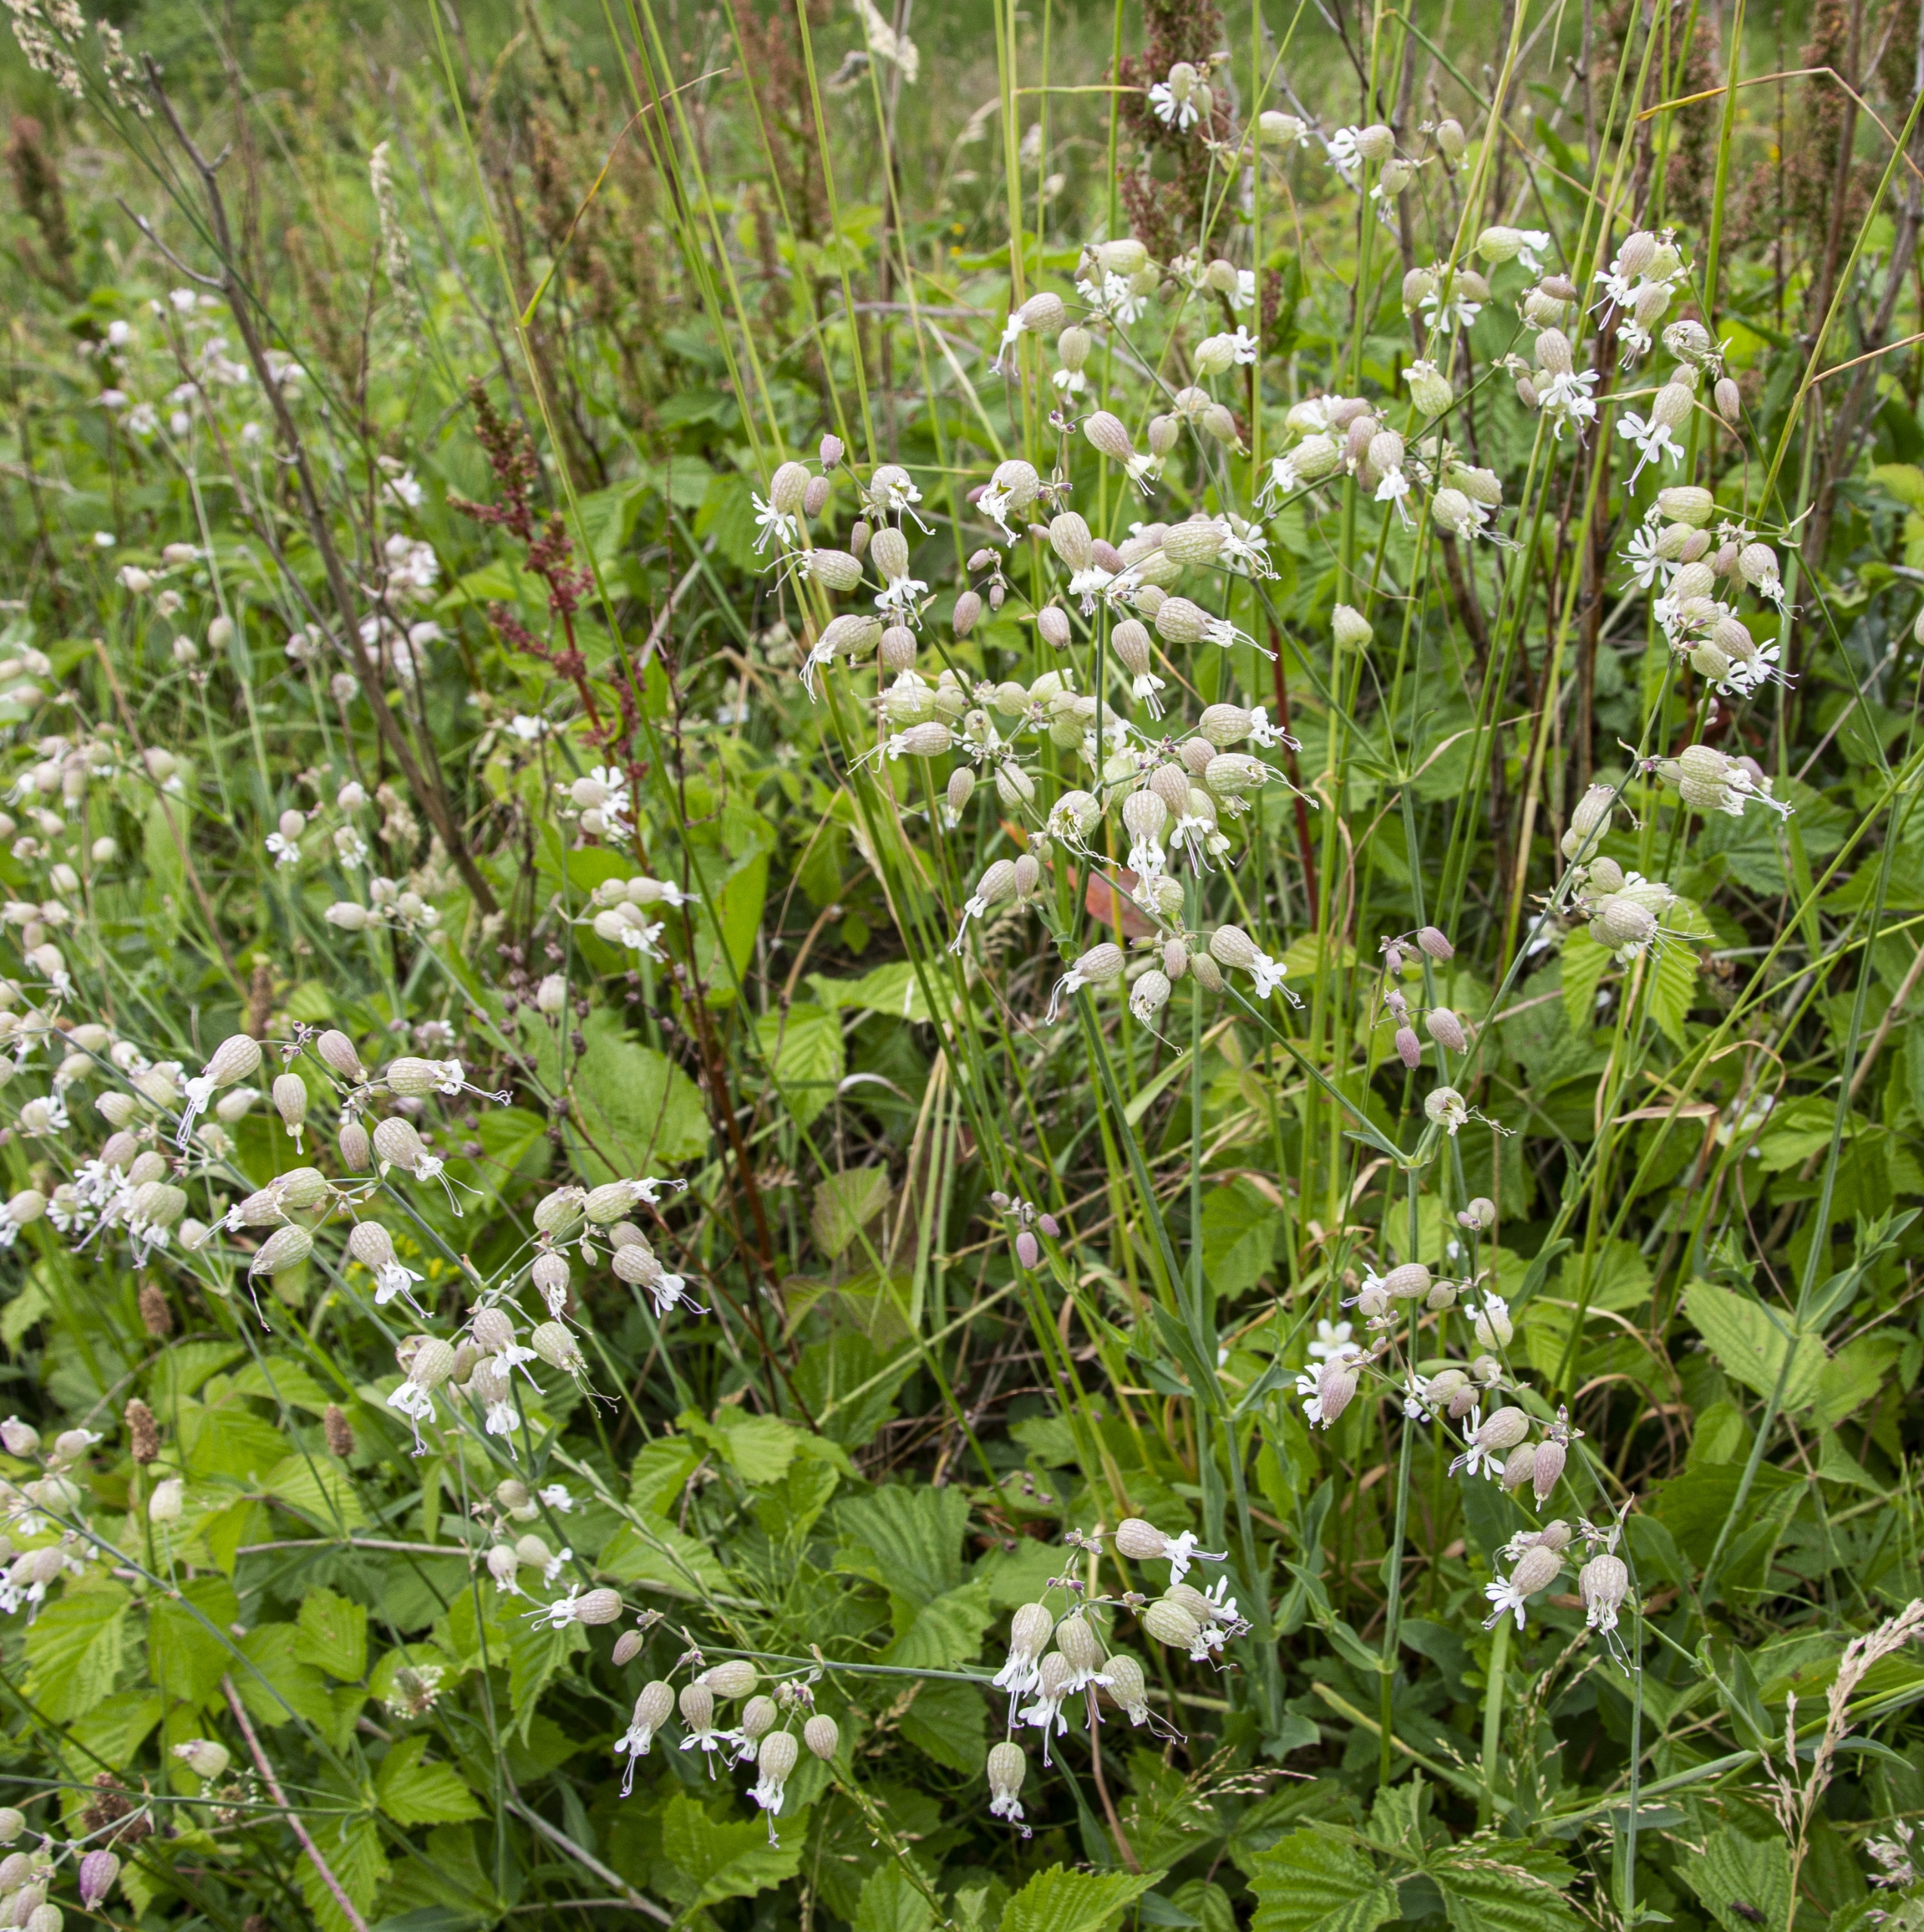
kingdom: Plantae
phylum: Tracheophyta
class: Magnoliopsida
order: Caryophyllales
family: Caryophyllaceae
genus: Silene
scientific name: Silene vulgaris
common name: Blæresmælde
